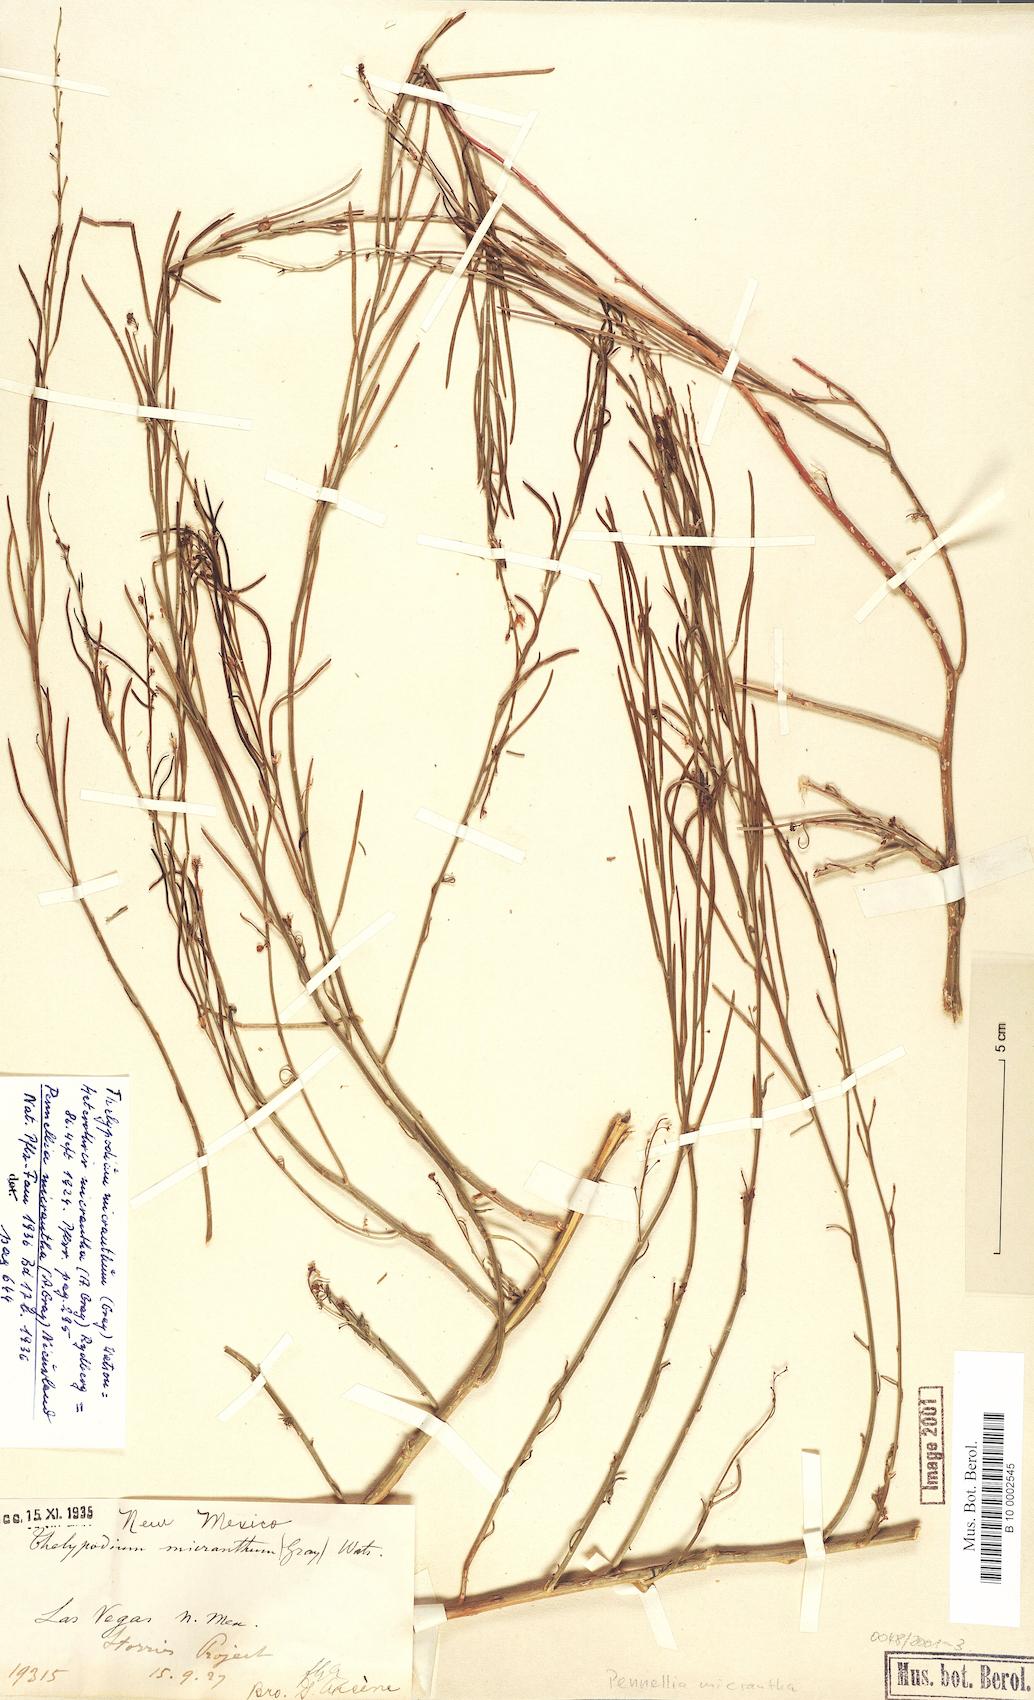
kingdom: Plantae
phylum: Tracheophyta
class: Magnoliopsida
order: Brassicales
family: Brassicaceae
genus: Pennellia
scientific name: Pennellia micrantha
